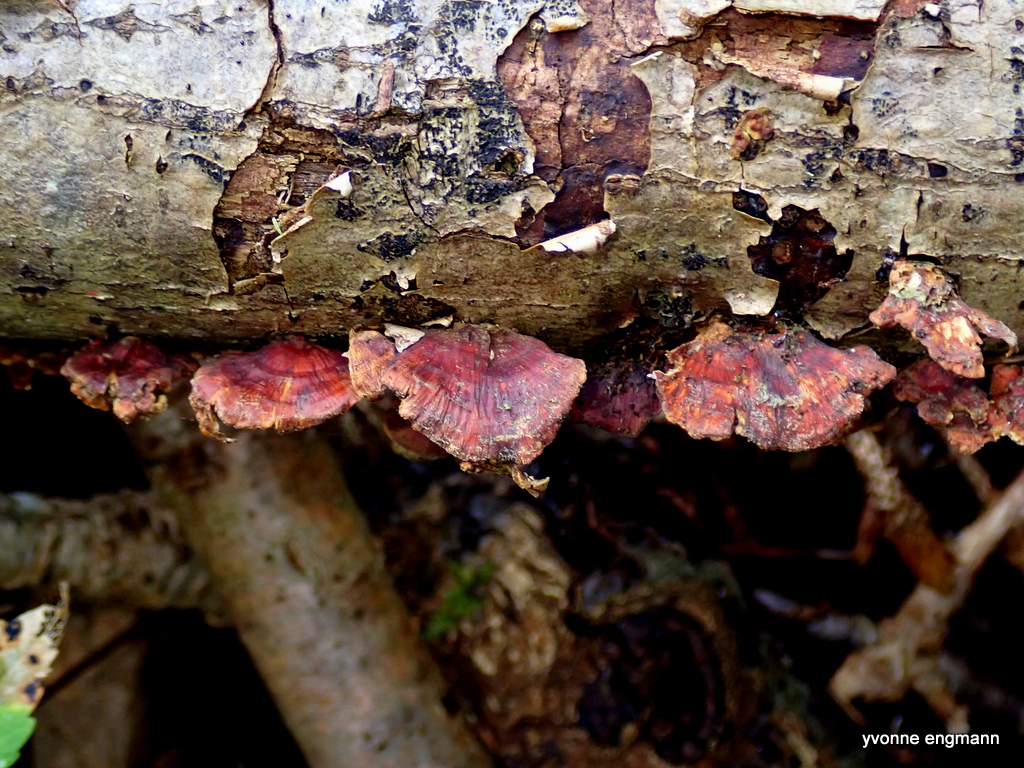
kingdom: Fungi
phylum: Basidiomycota
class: Agaricomycetes
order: Russulales
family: Stereaceae
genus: Stereum
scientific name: Stereum
